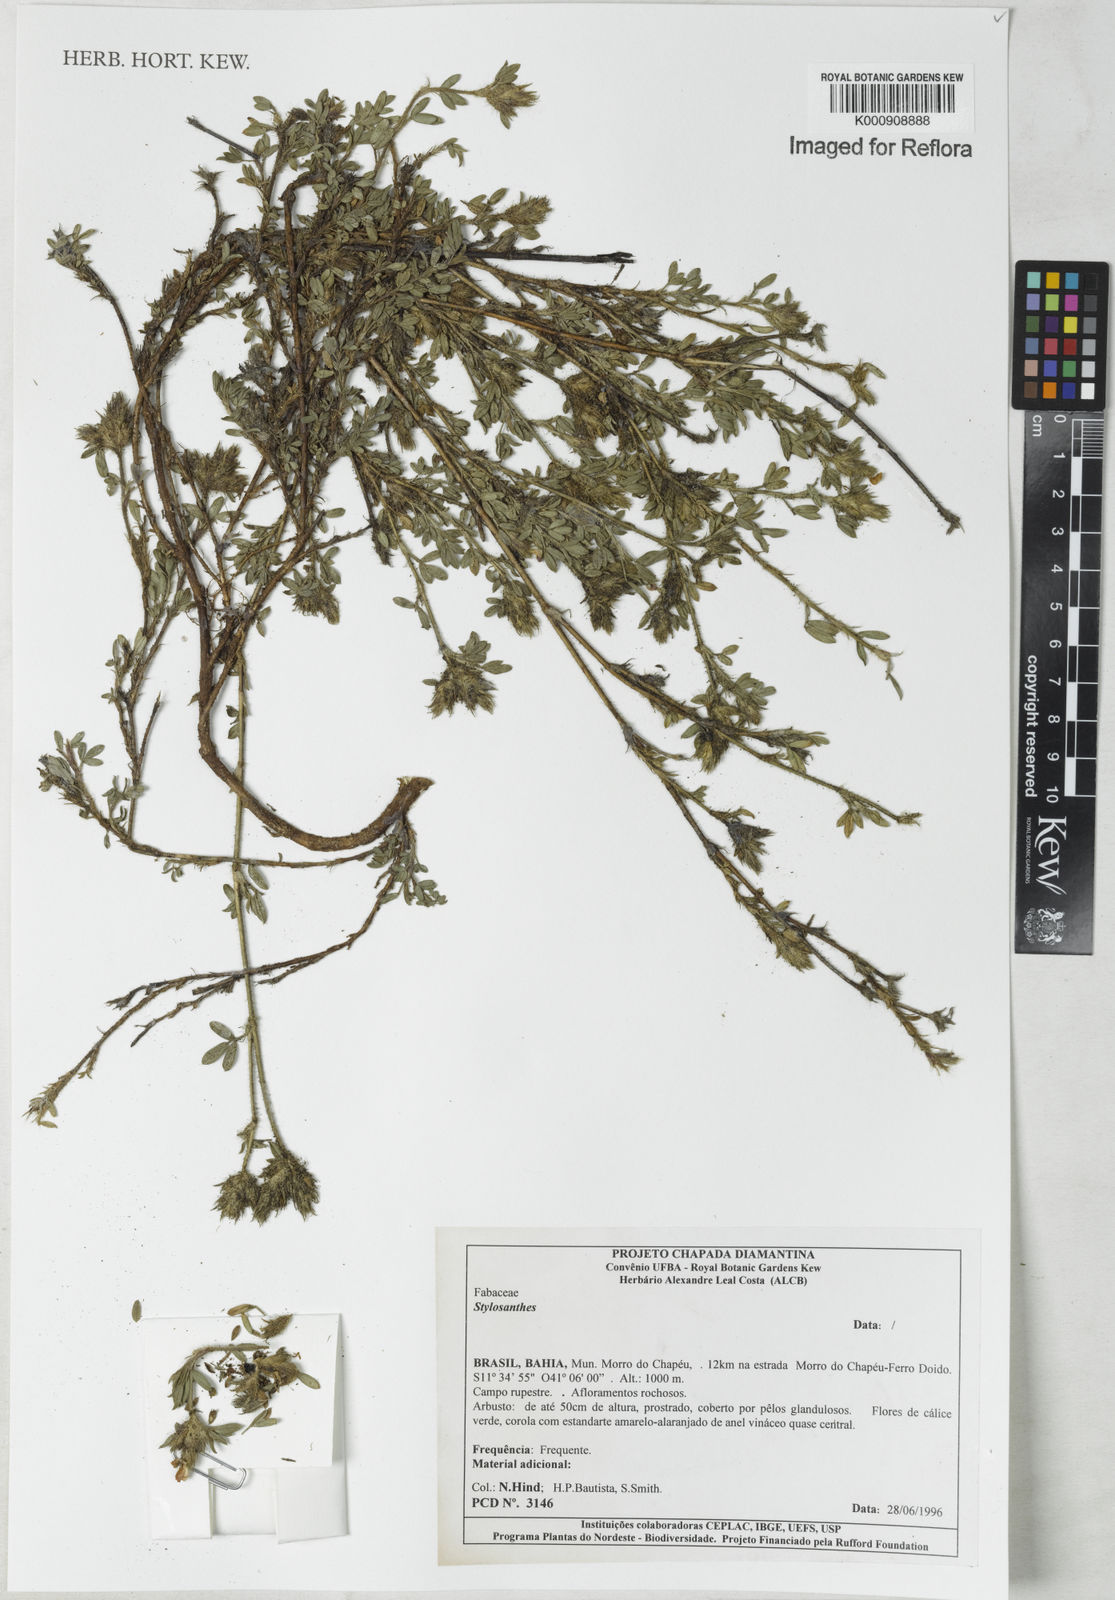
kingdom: Plantae
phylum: Tracheophyta
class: Magnoliopsida
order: Fabales
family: Fabaceae
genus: Stylosanthes
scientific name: Stylosanthes
